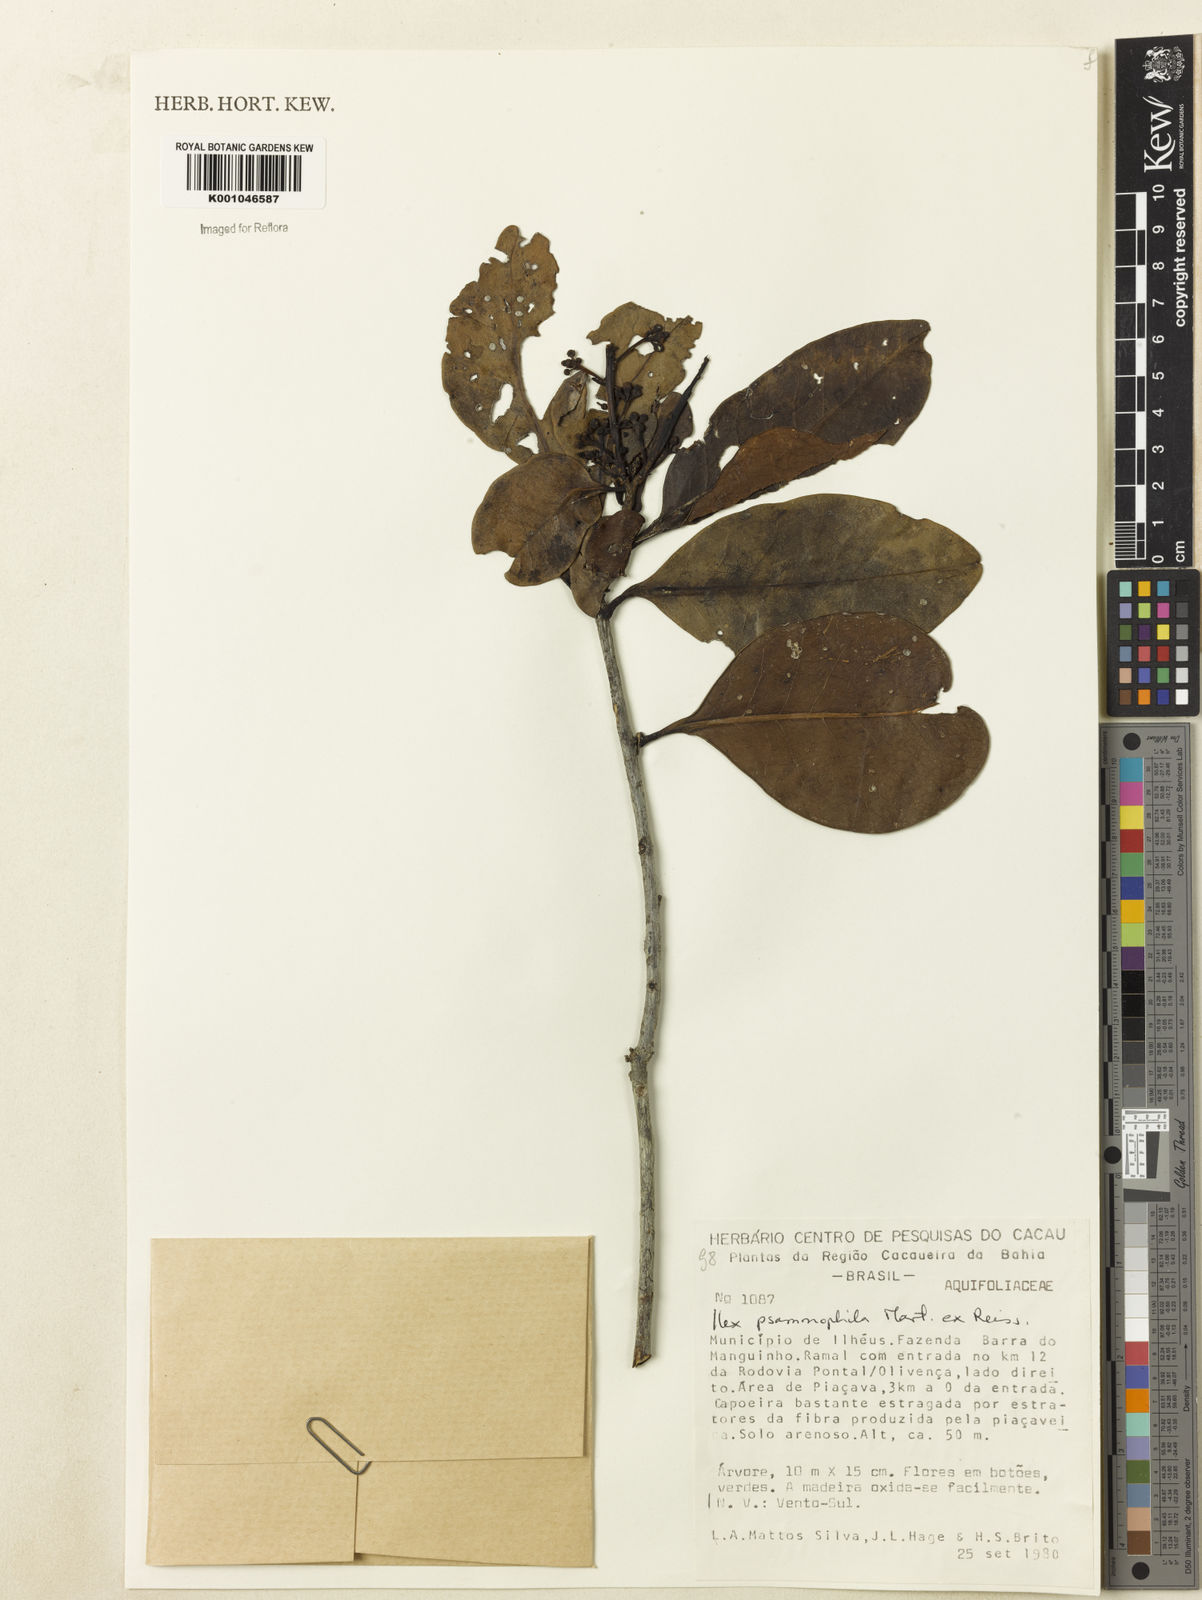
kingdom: Plantae
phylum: Tracheophyta
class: Magnoliopsida
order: Aquifoliales
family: Aquifoliaceae
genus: Ilex
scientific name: Ilex psammophila
